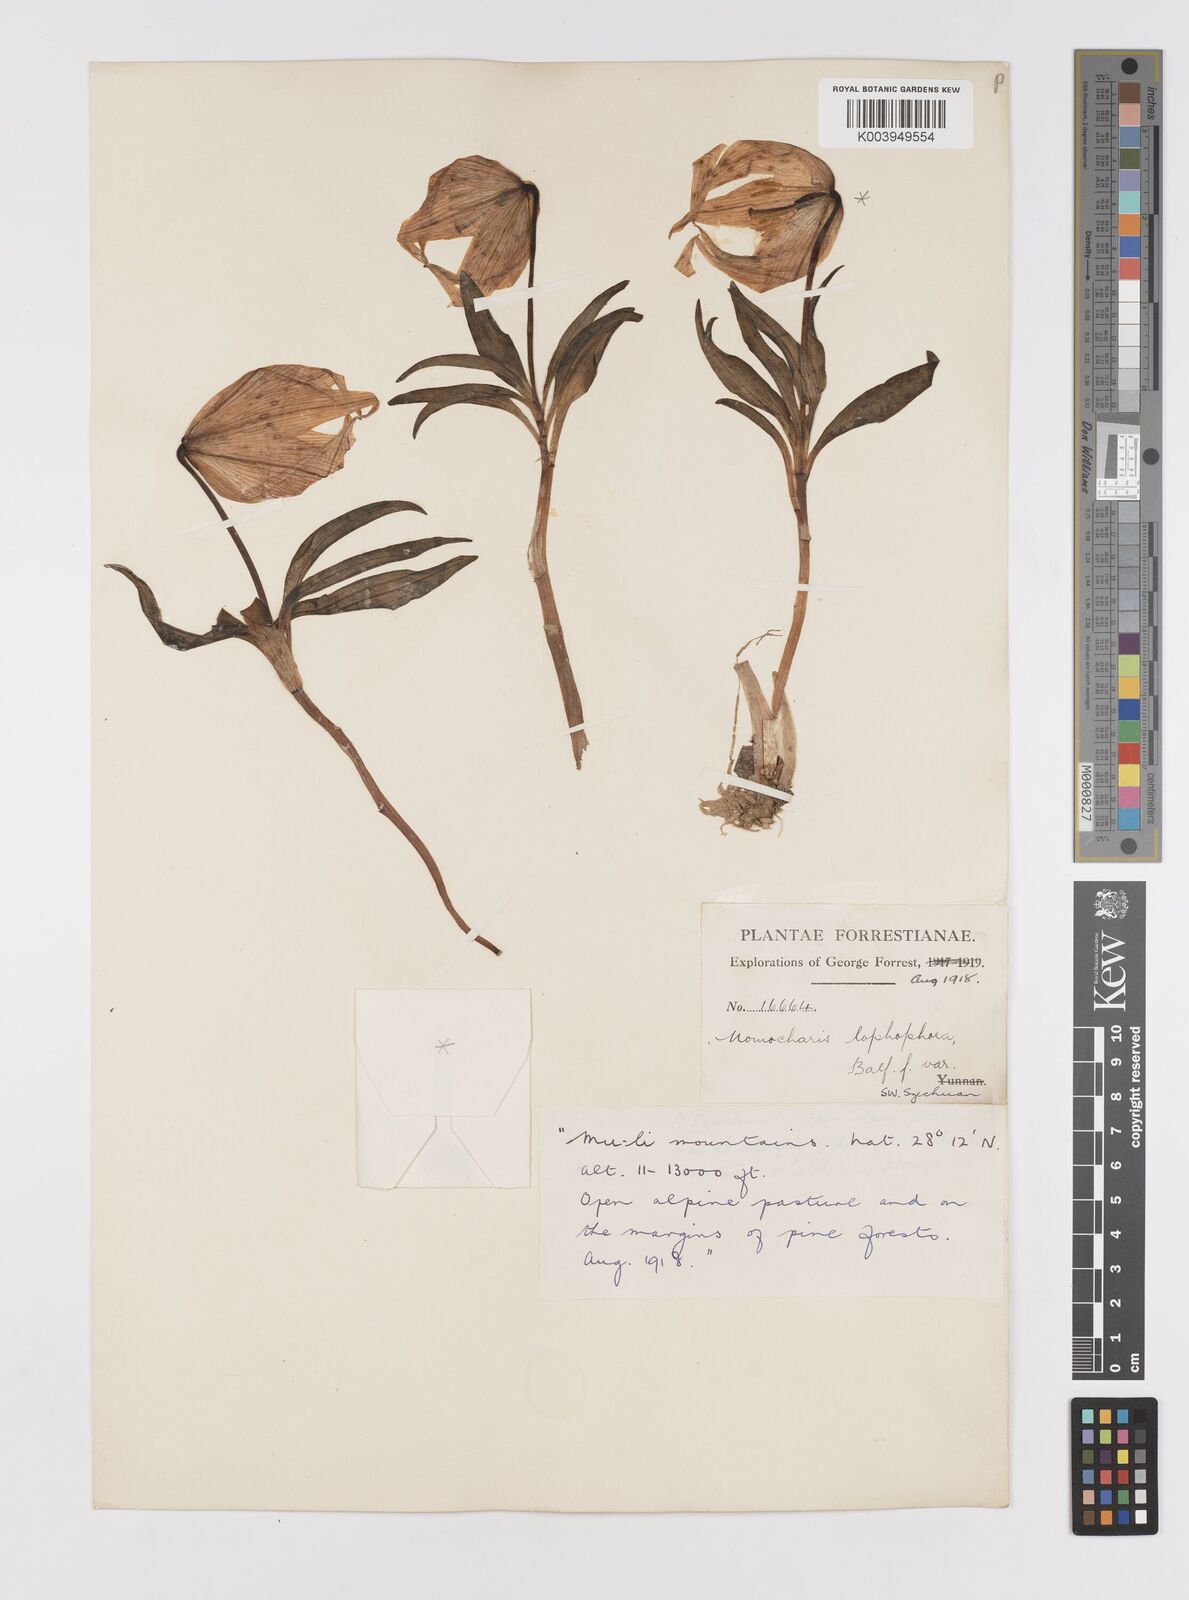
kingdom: Plantae
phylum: Tracheophyta
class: Liliopsida
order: Liliales
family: Liliaceae
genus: Lilium
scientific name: Lilium lophophorum
